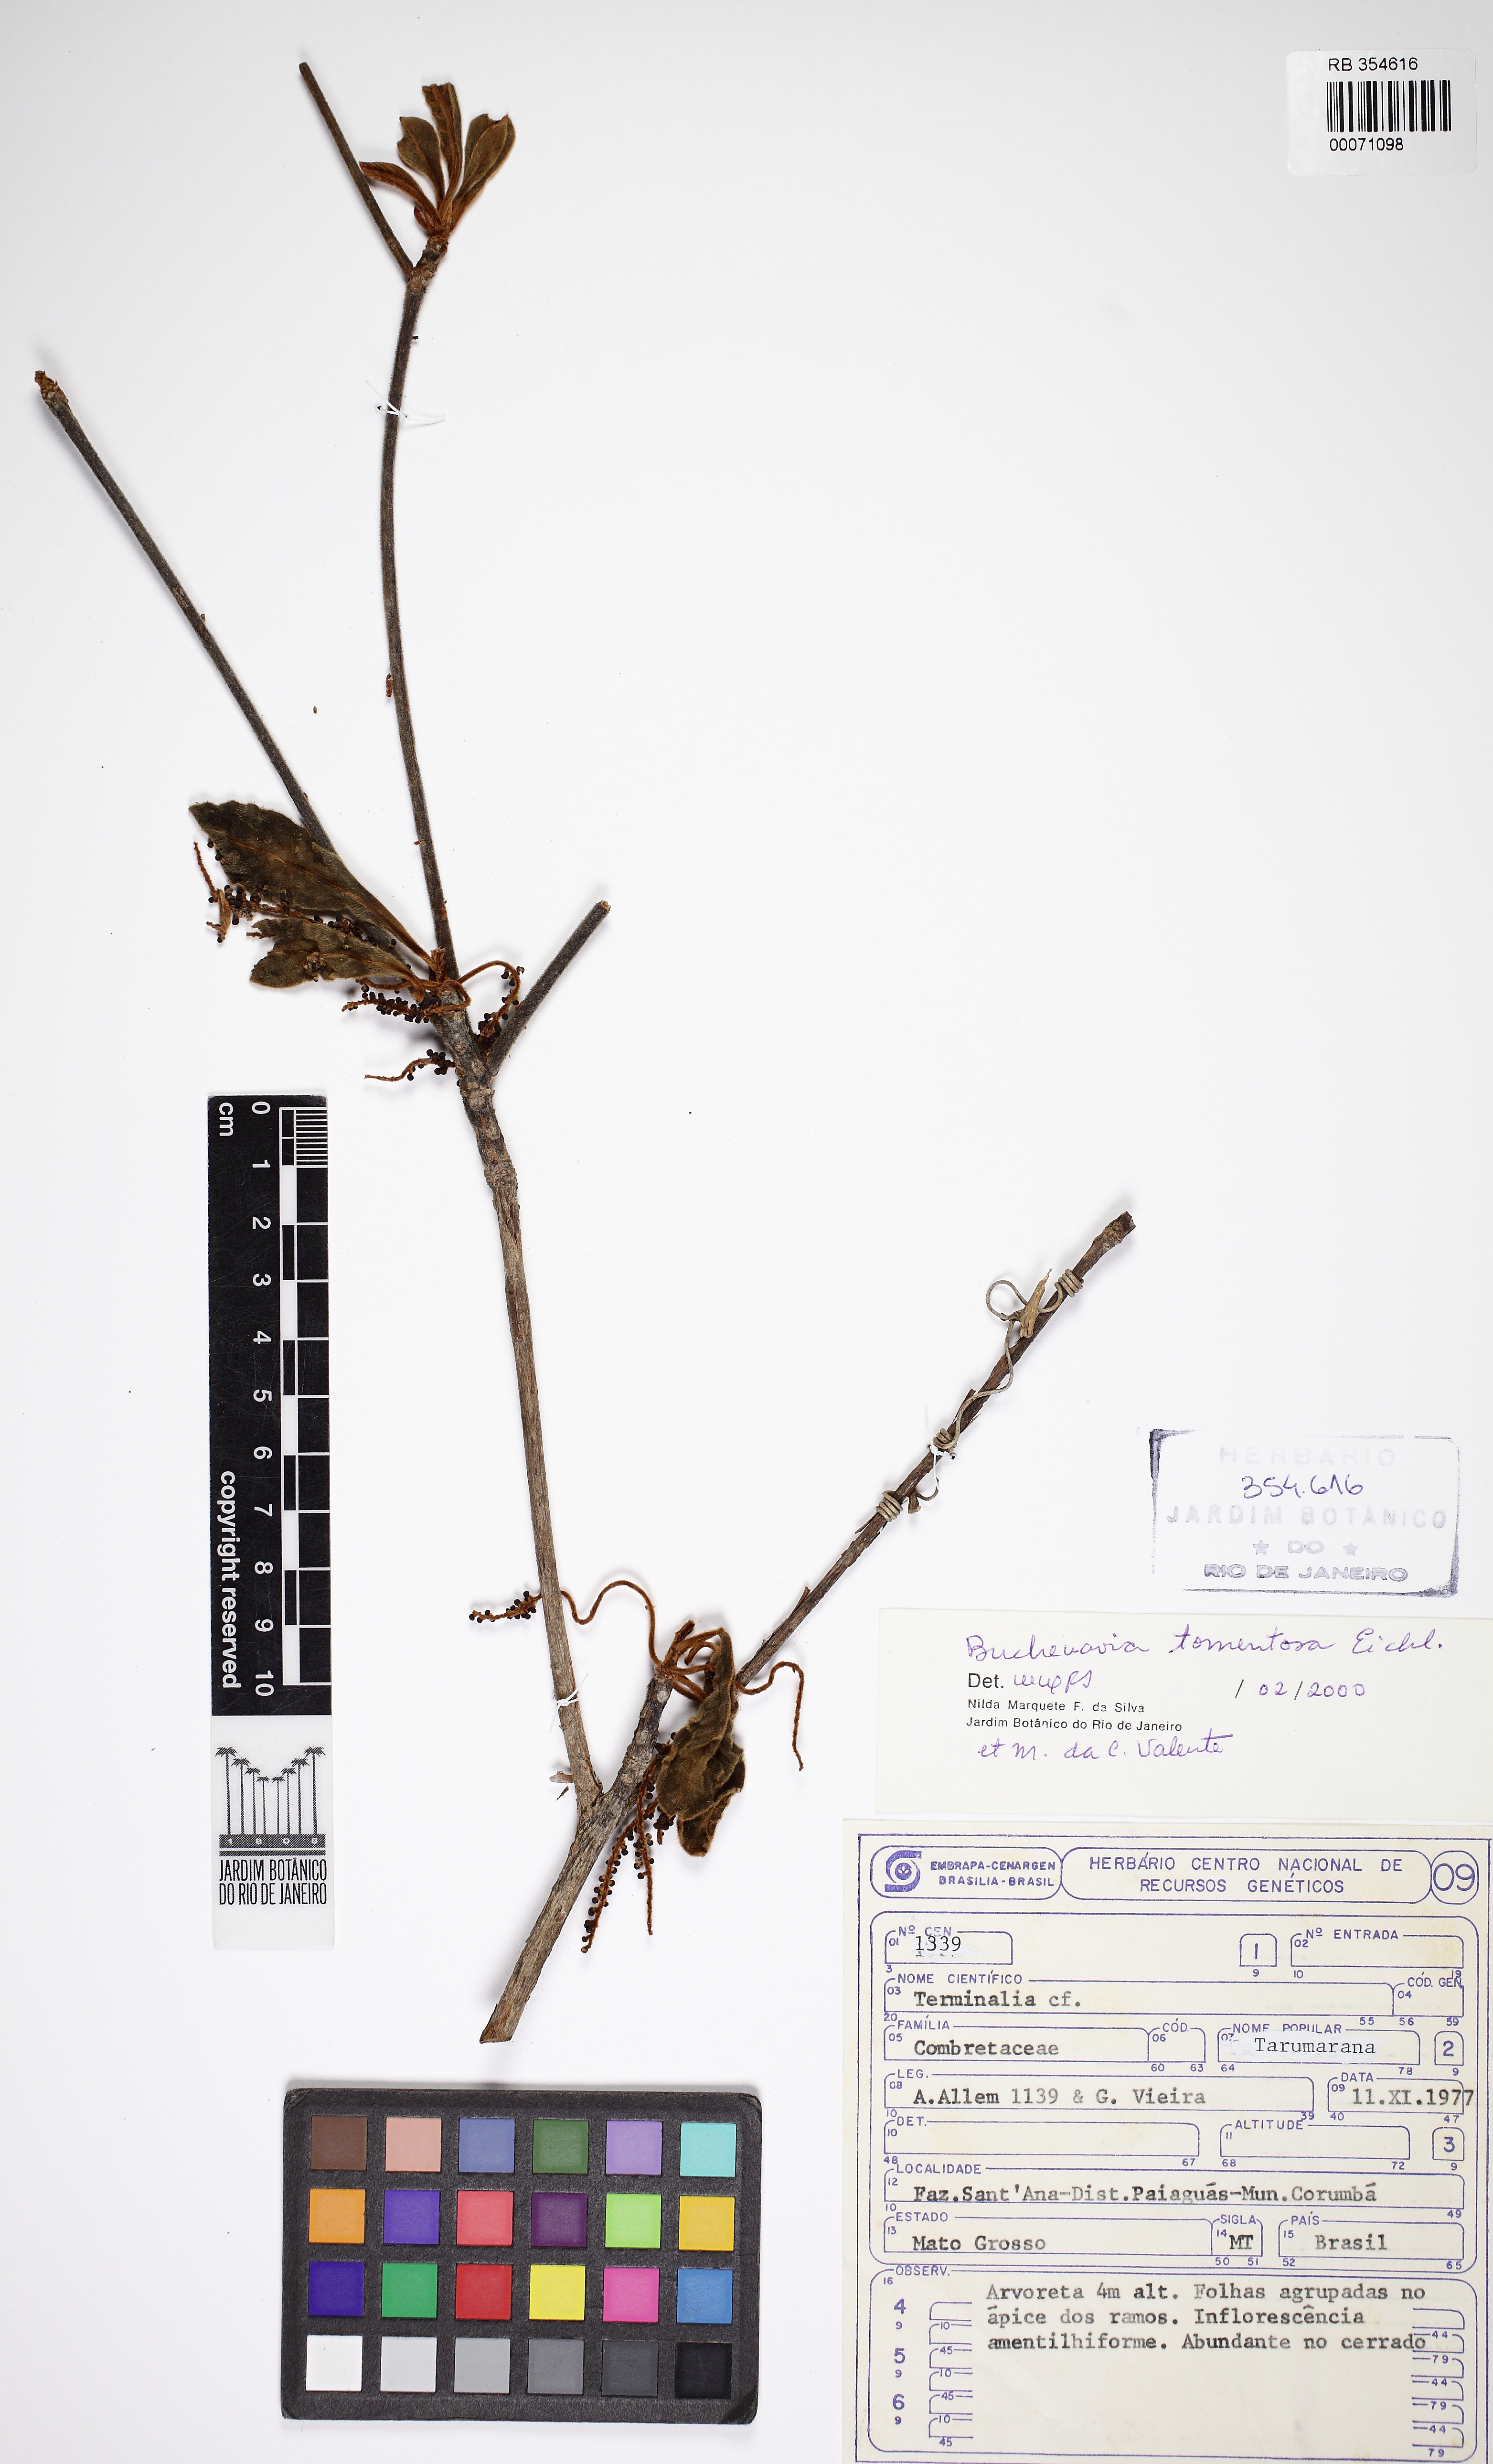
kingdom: Plantae
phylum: Tracheophyta
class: Magnoliopsida
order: Myrtales
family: Combretaceae
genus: Terminalia
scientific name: Terminalia corrugata
